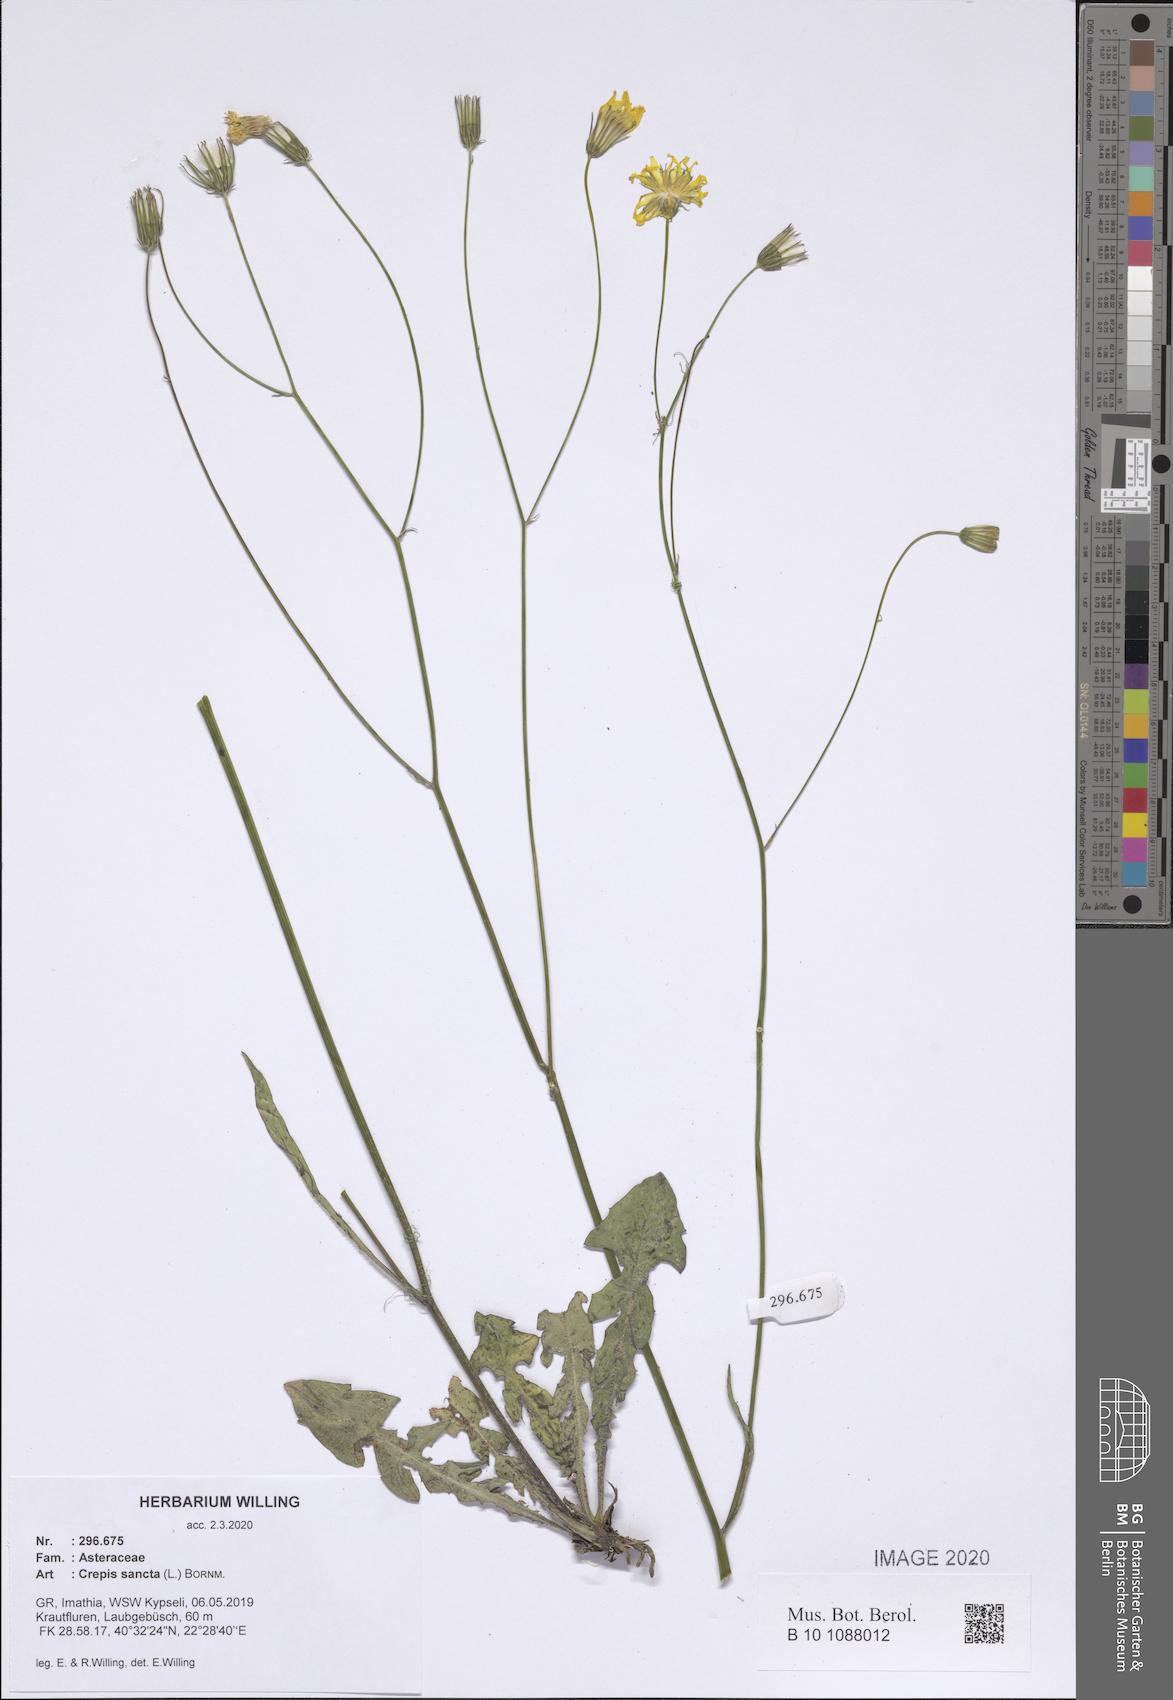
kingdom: Plantae
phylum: Tracheophyta
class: Magnoliopsida
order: Asterales
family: Asteraceae
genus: Crepis
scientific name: Crepis sancta
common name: Hawk's-beard
